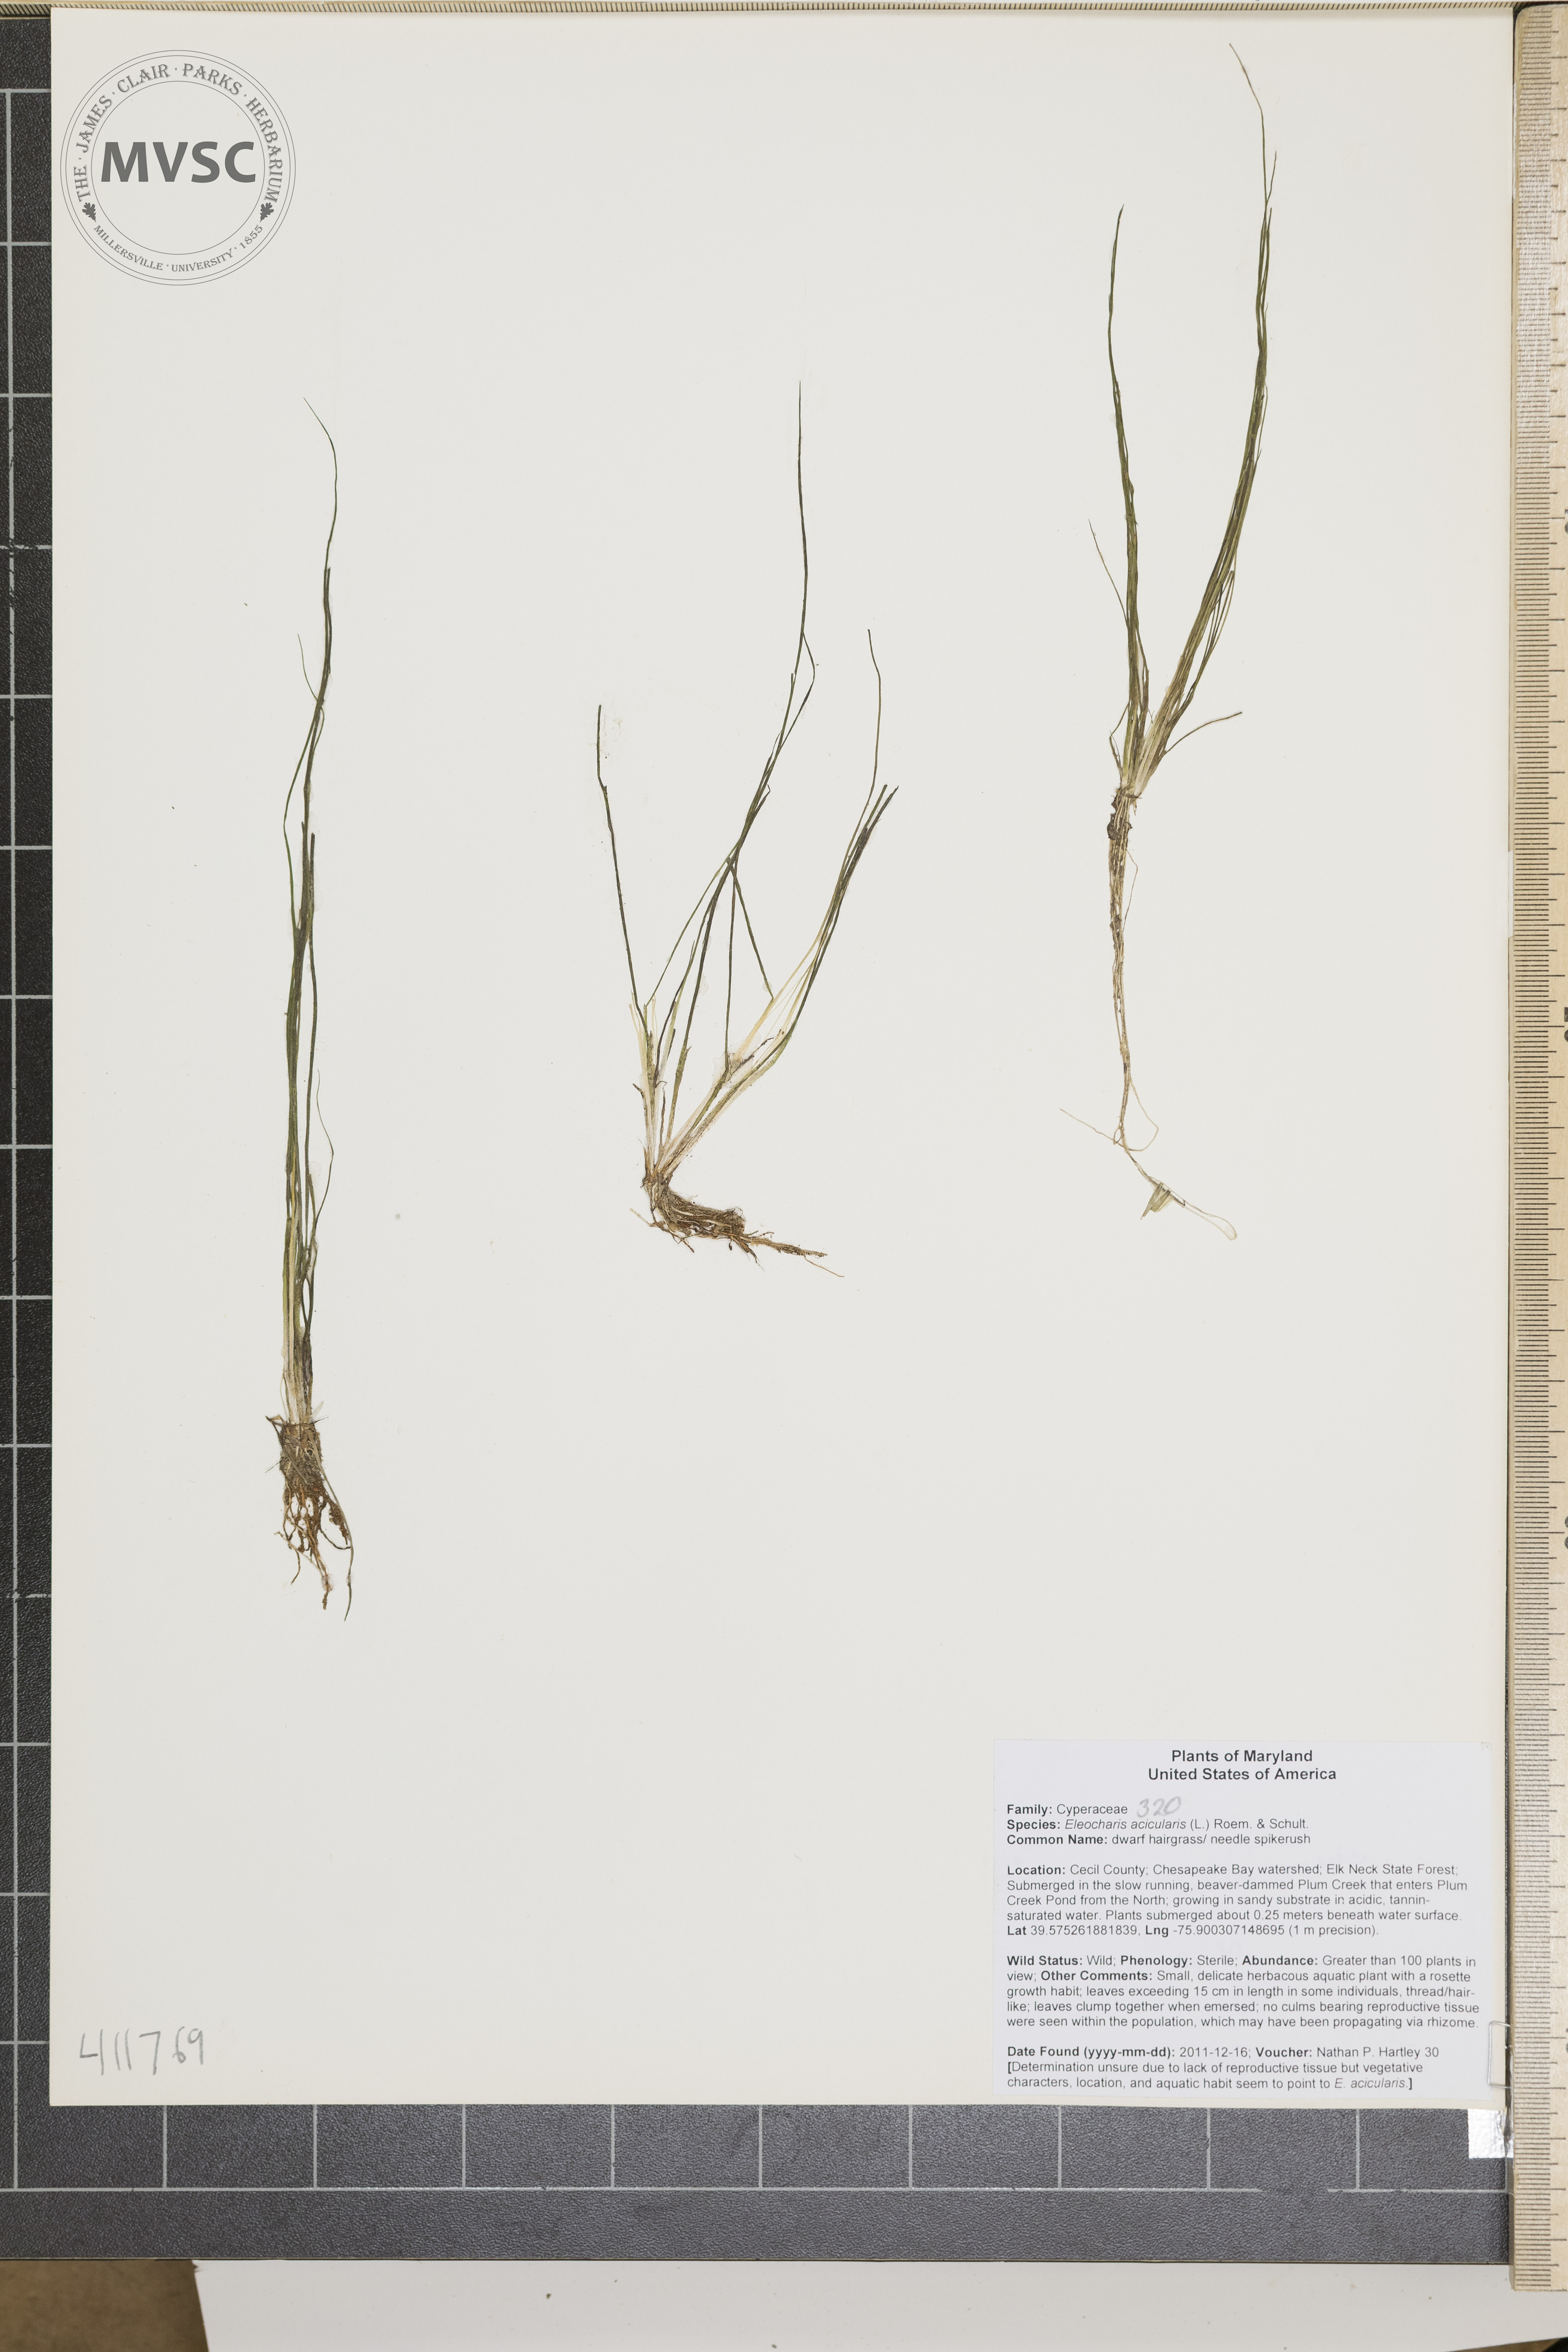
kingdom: Plantae
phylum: Tracheophyta
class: Liliopsida
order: Poales
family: Cyperaceae
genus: Eleocharis
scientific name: Eleocharis acicularis
